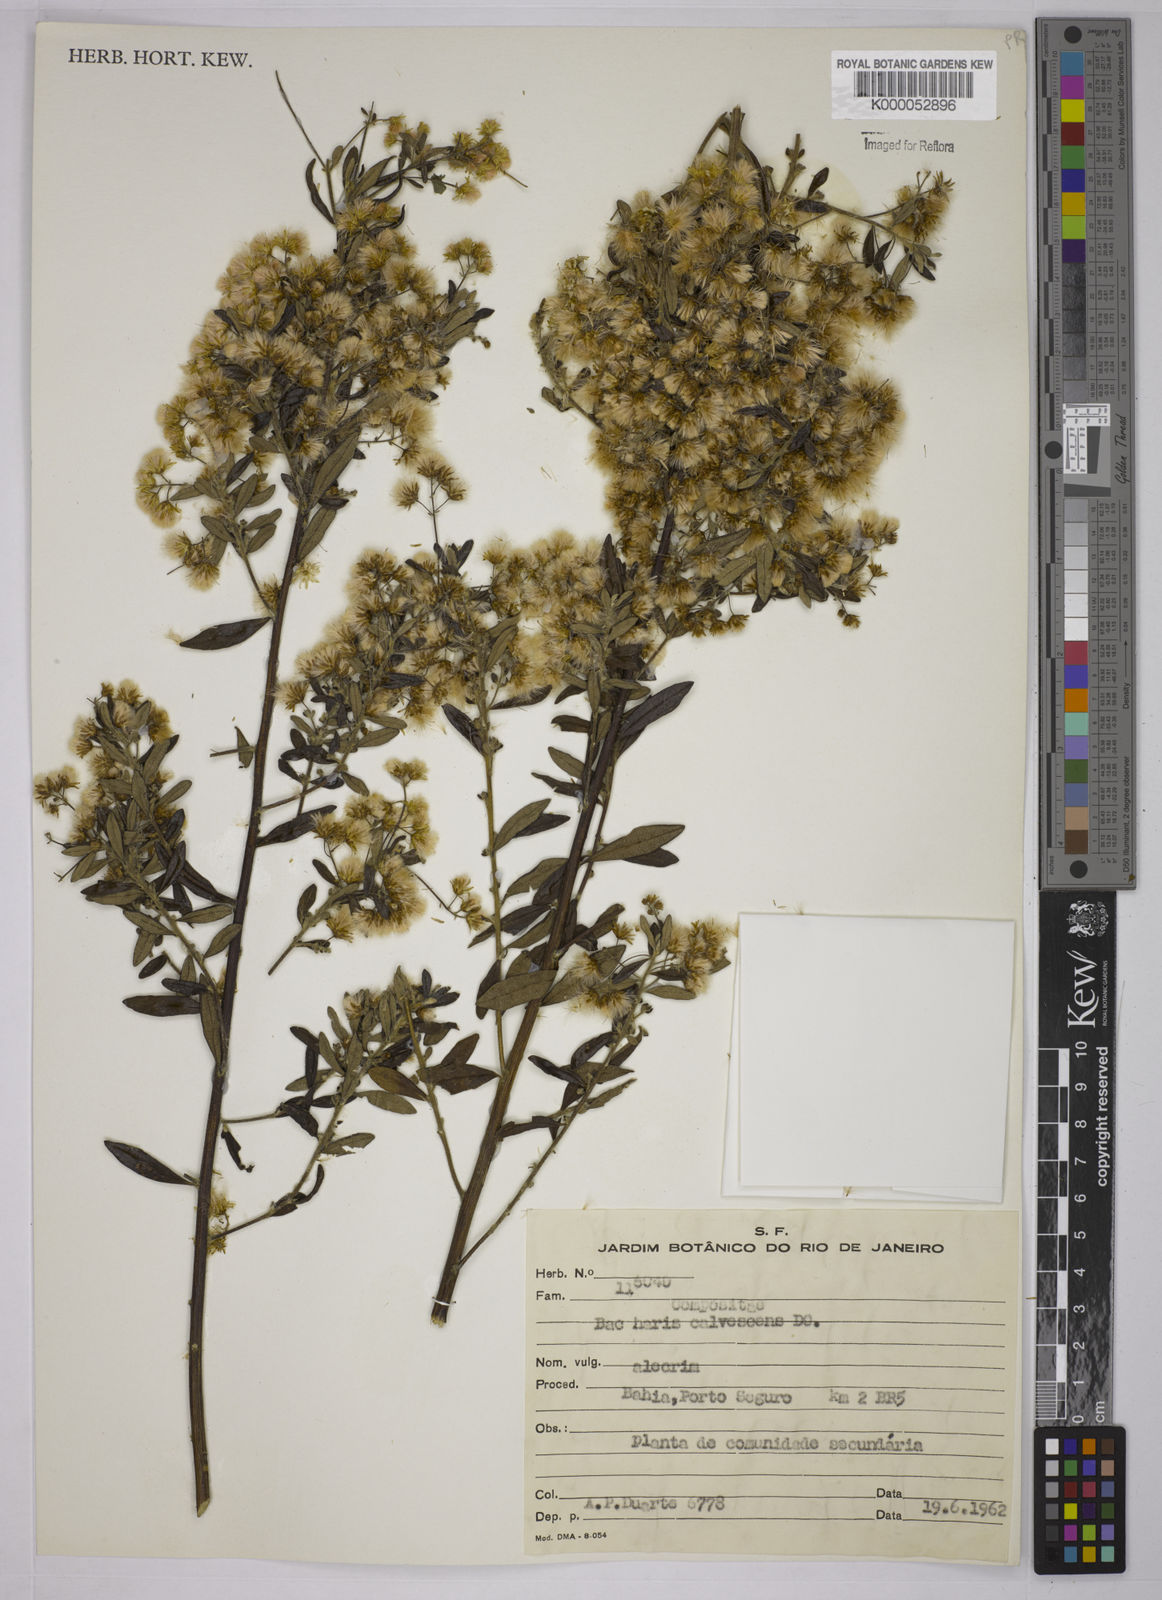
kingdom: Plantae
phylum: Tracheophyta
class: Magnoliopsida
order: Asterales
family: Asteraceae
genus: Baccharis
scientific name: Baccharis calvescens
